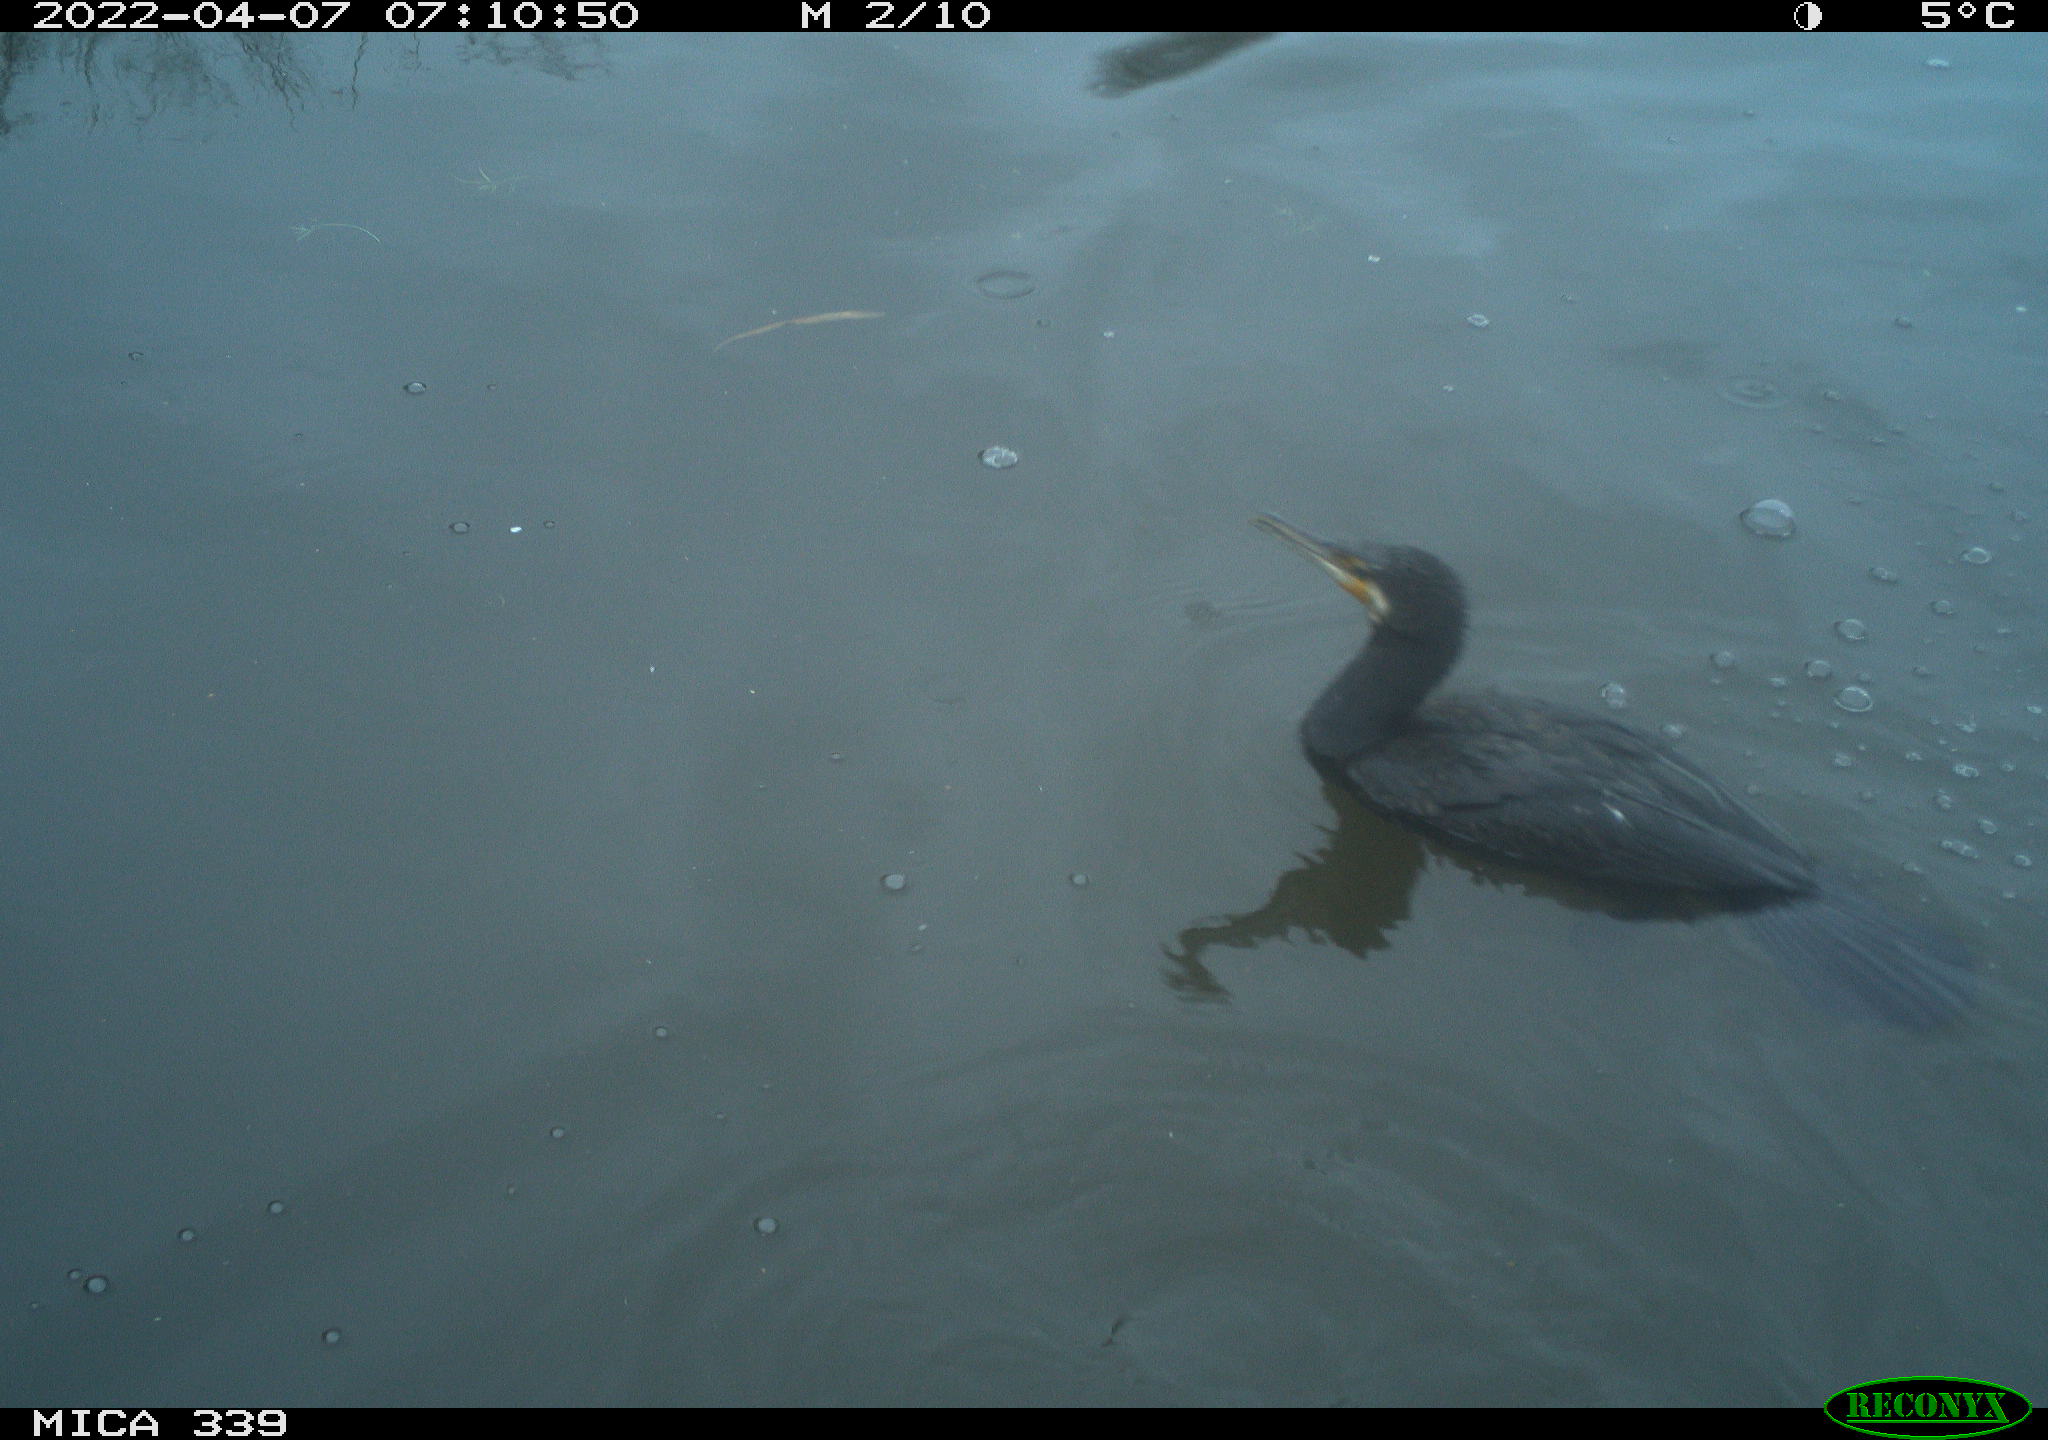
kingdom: Animalia
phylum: Chordata
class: Aves
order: Suliformes
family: Phalacrocoracidae
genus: Phalacrocorax
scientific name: Phalacrocorax carbo
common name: Great cormorant
